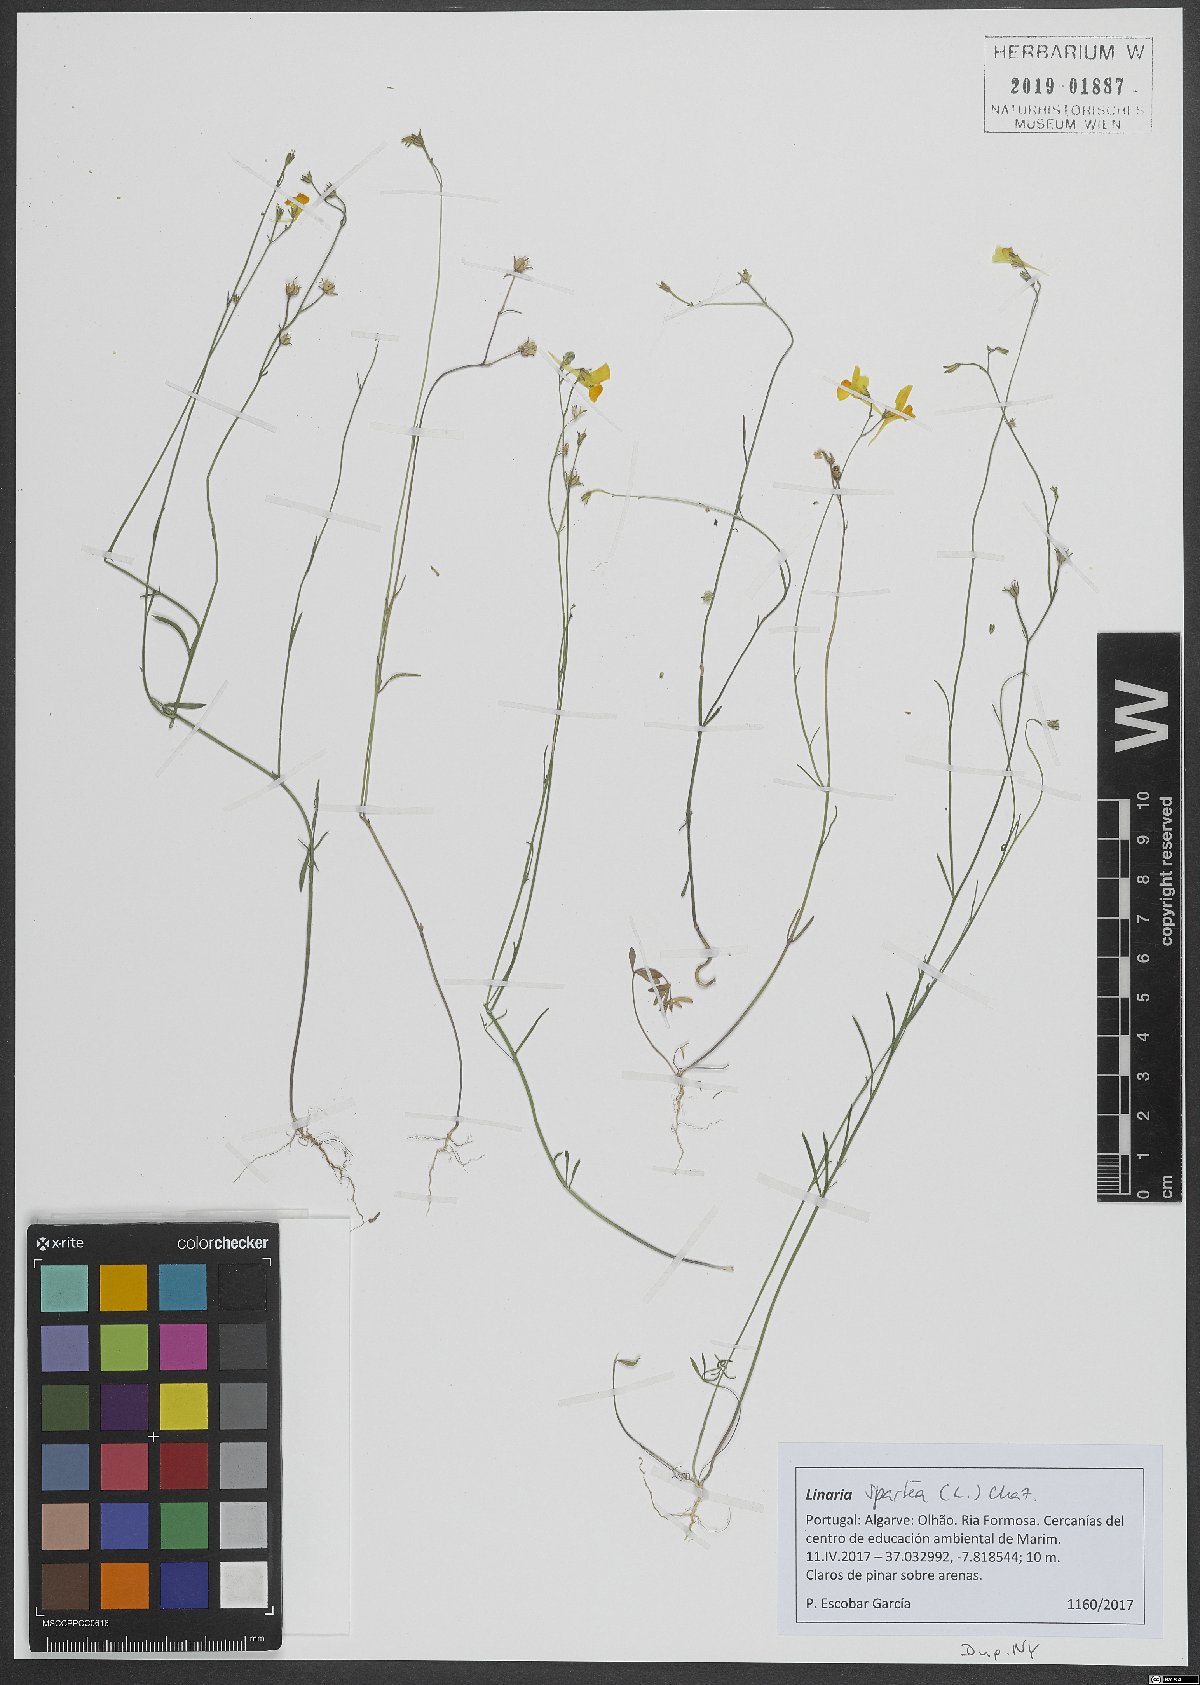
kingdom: Plantae
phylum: Tracheophyta
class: Magnoliopsida
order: Lamiales
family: Plantaginaceae
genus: Linaria
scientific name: Linaria spartea
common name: Ballast toadflax
